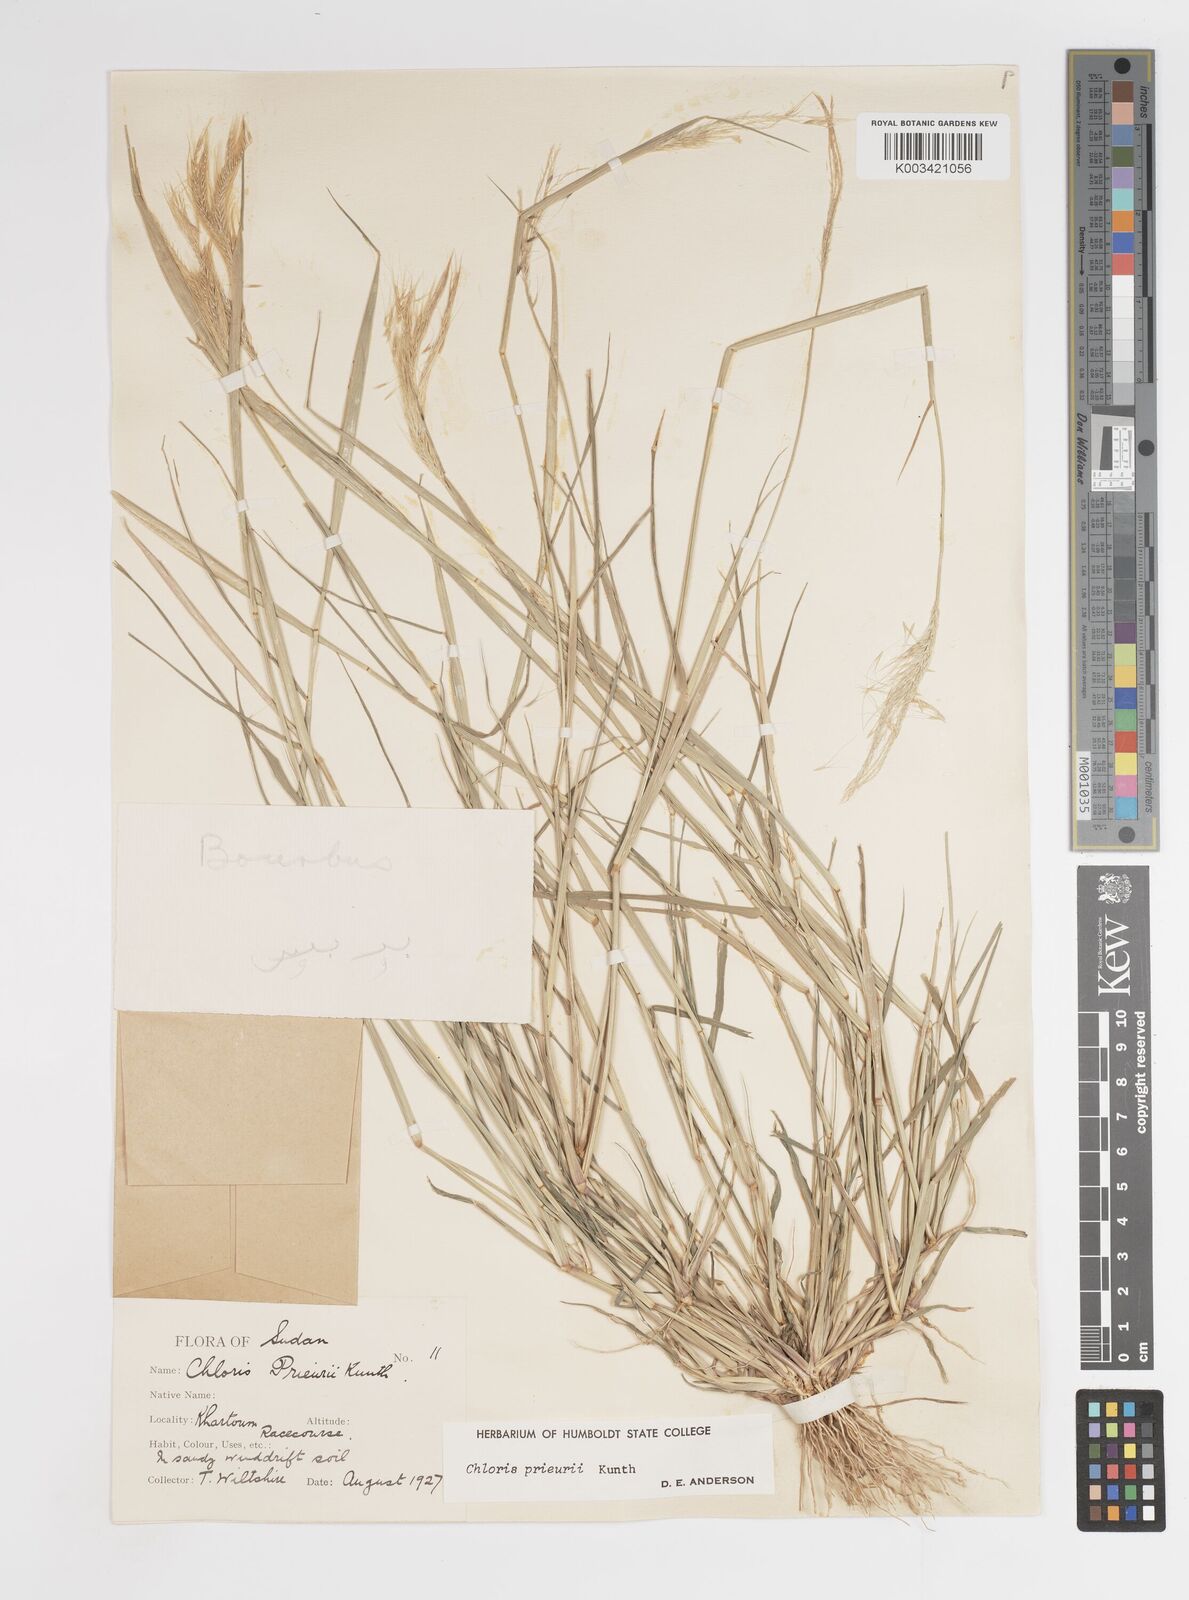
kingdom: Plantae
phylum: Tracheophyta
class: Liliopsida
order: Poales
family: Poaceae
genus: Enteropogon
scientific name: Enteropogon prieurii
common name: Prieur's umbrellagrass
